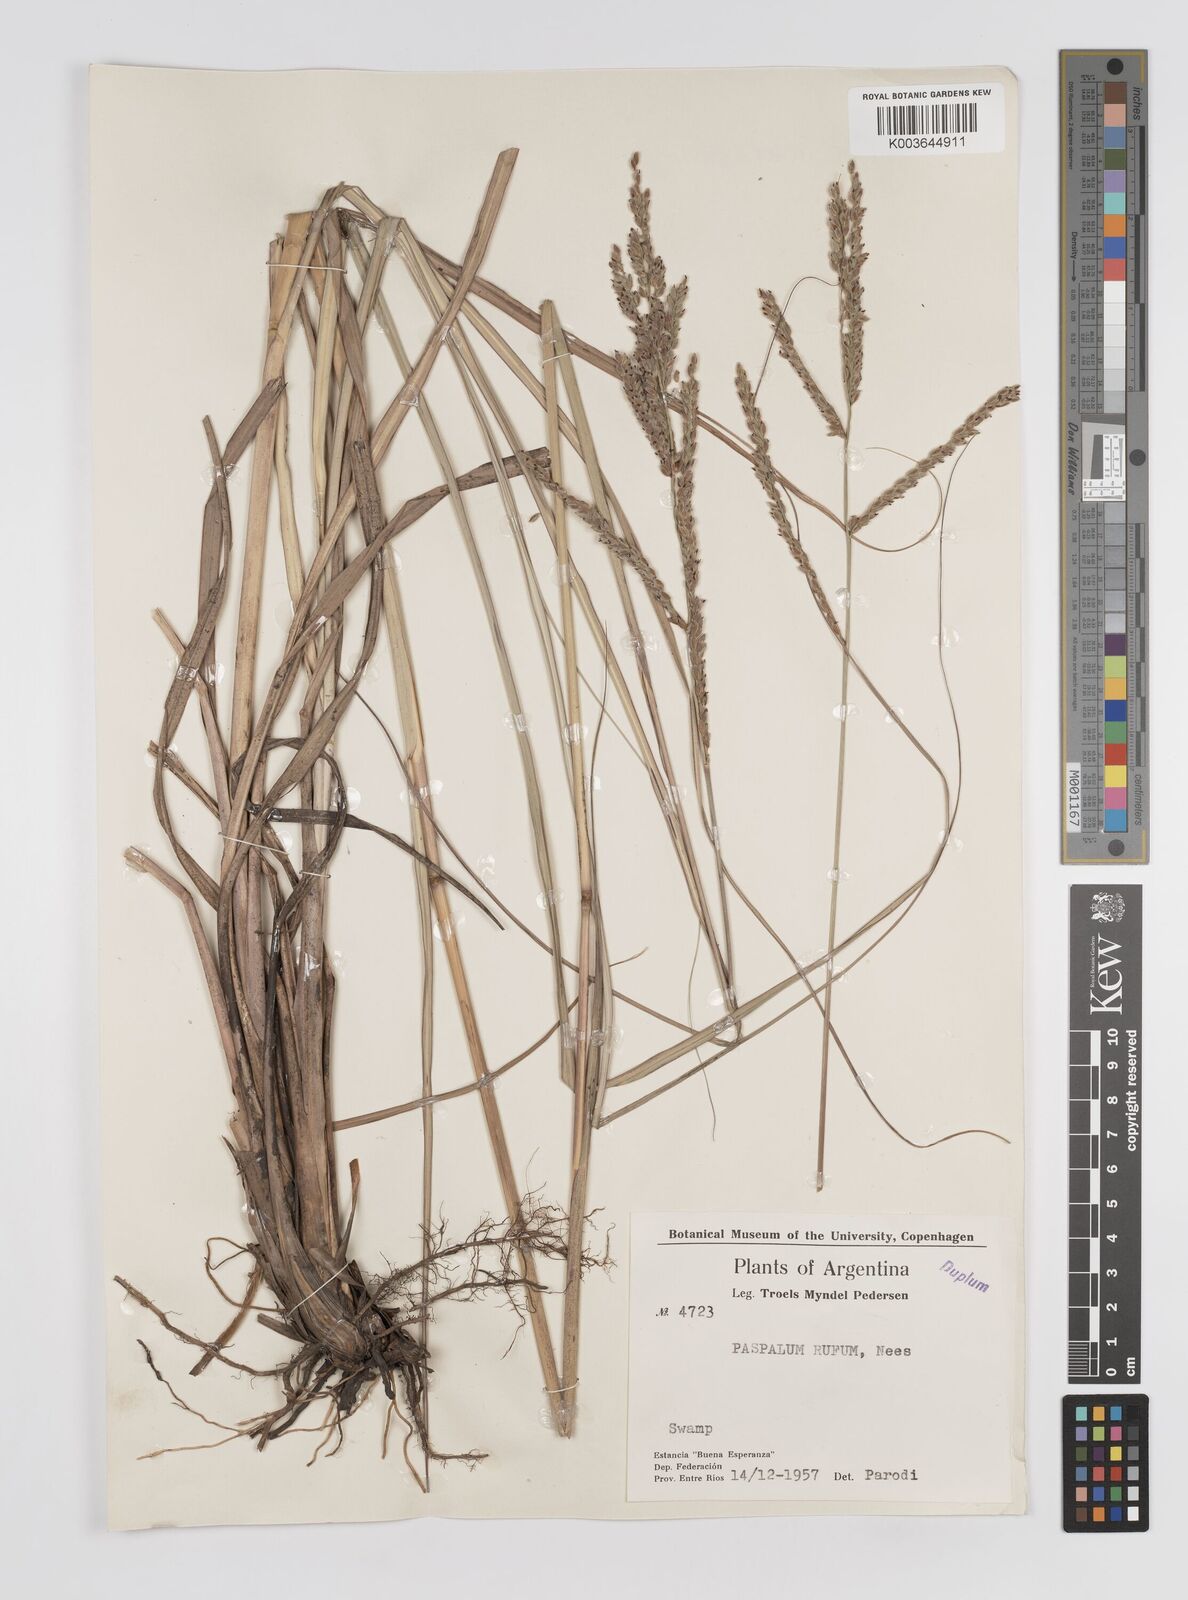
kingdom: Plantae
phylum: Tracheophyta
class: Liliopsida
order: Poales
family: Poaceae
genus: Paspalum
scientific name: Paspalum rufum
